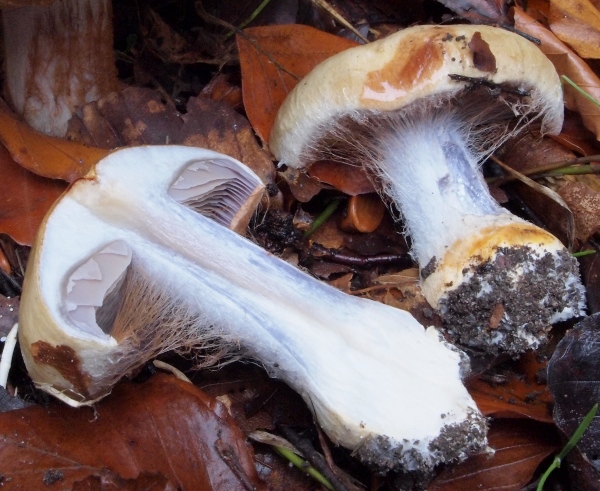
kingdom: Fungi
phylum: Basidiomycota
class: Agaricomycetes
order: Agaricales
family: Cortinariaceae
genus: Cortinarius
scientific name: Cortinarius anserinus
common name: bøge-slørhat
